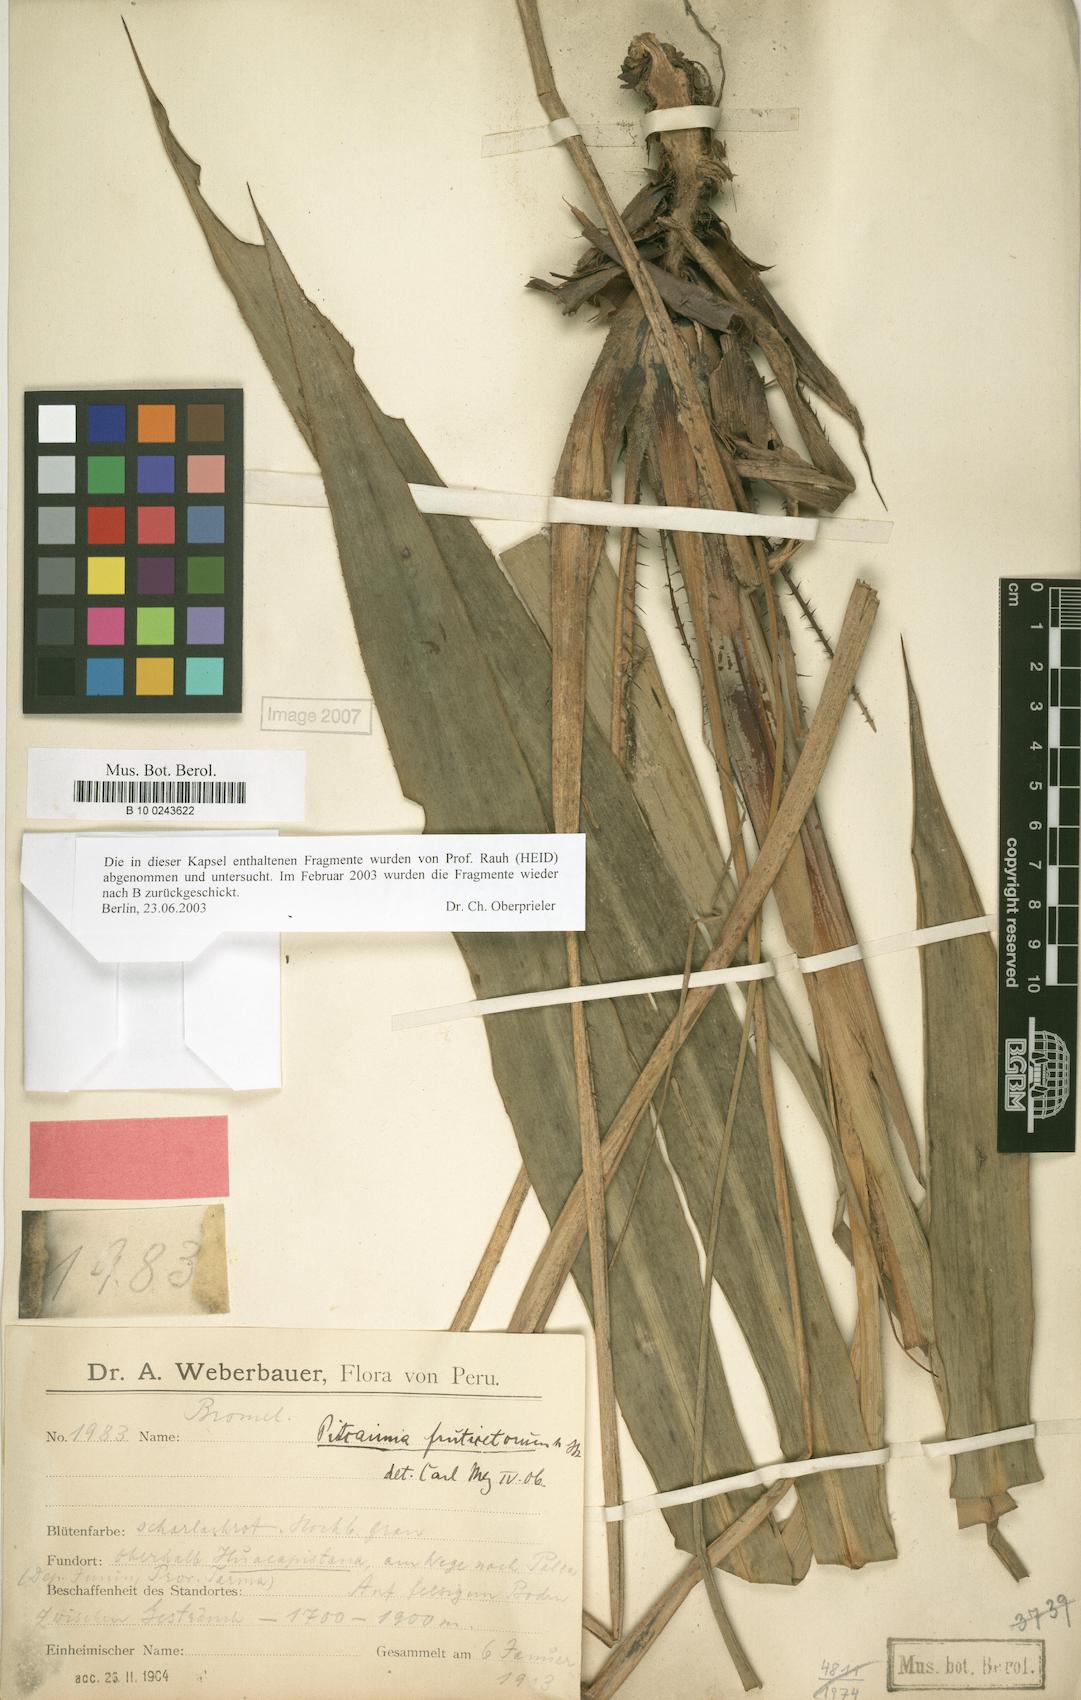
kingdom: Plantae
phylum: Tracheophyta
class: Liliopsida
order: Poales
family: Bromeliaceae
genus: Pitcairnia
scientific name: Pitcairnia paniculata
